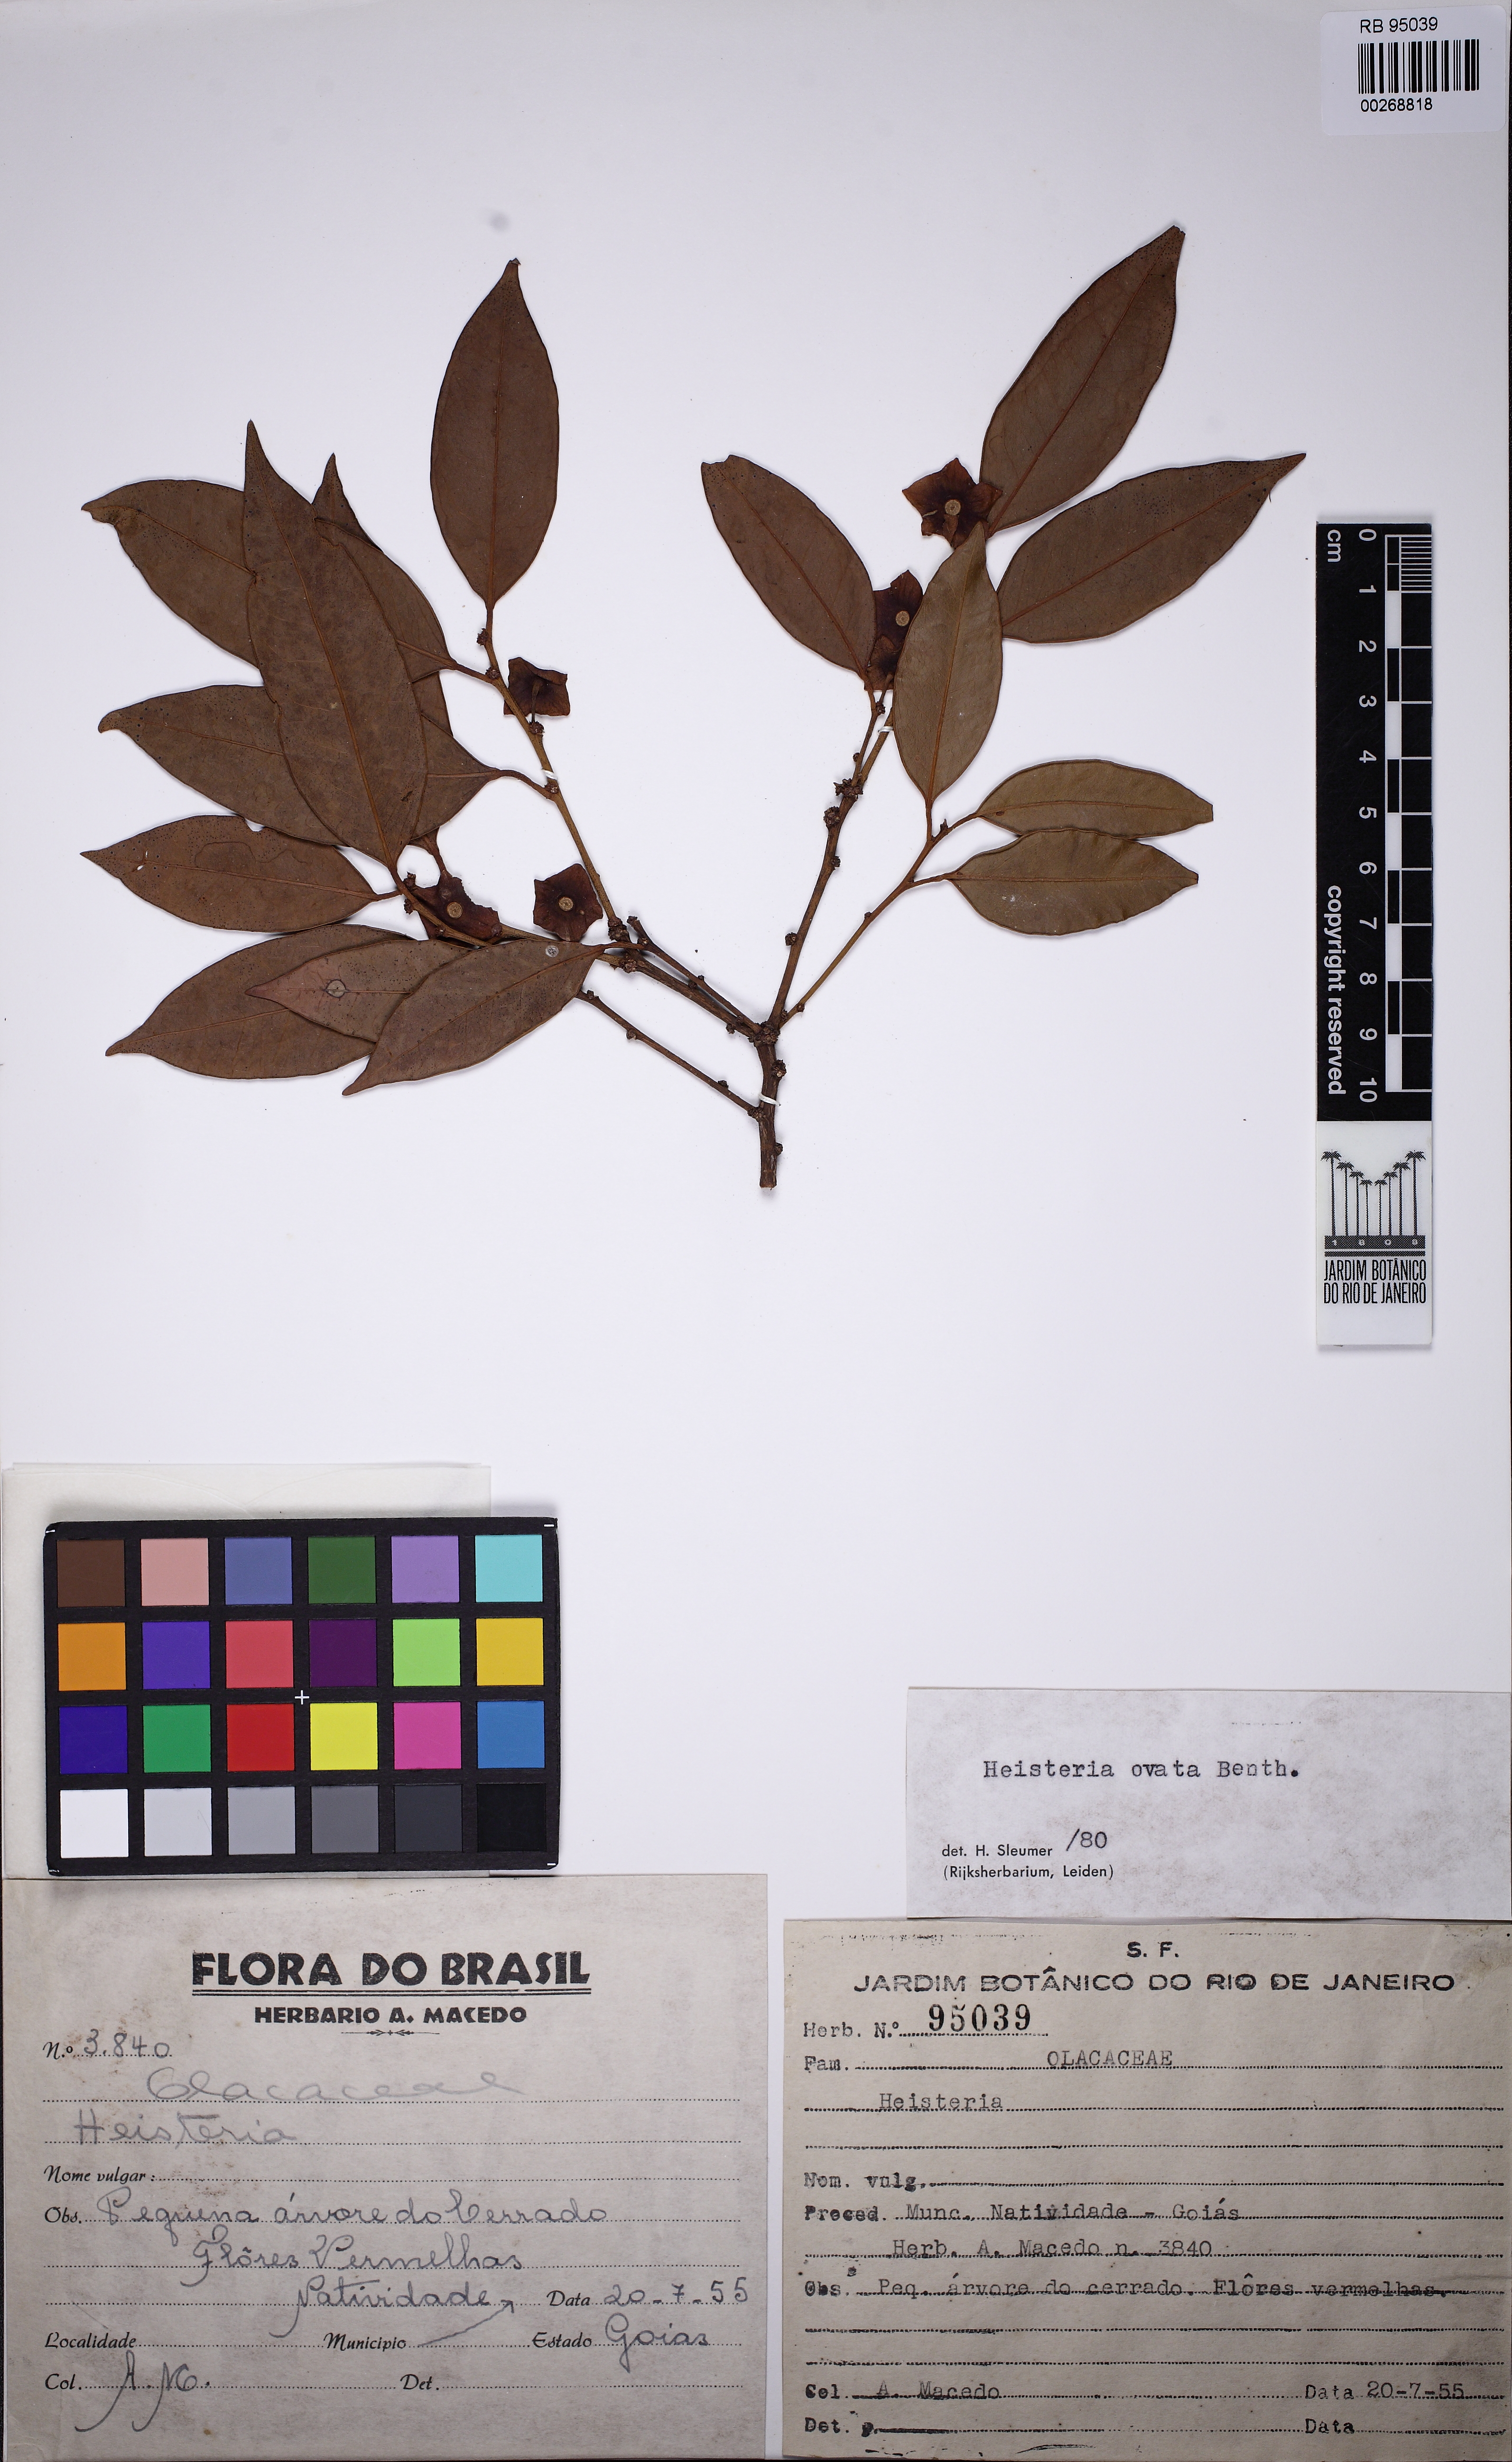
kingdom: Plantae
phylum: Tracheophyta
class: Magnoliopsida
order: Santalales
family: Erythropalaceae
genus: Heisteria
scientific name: Heisteria ovata
